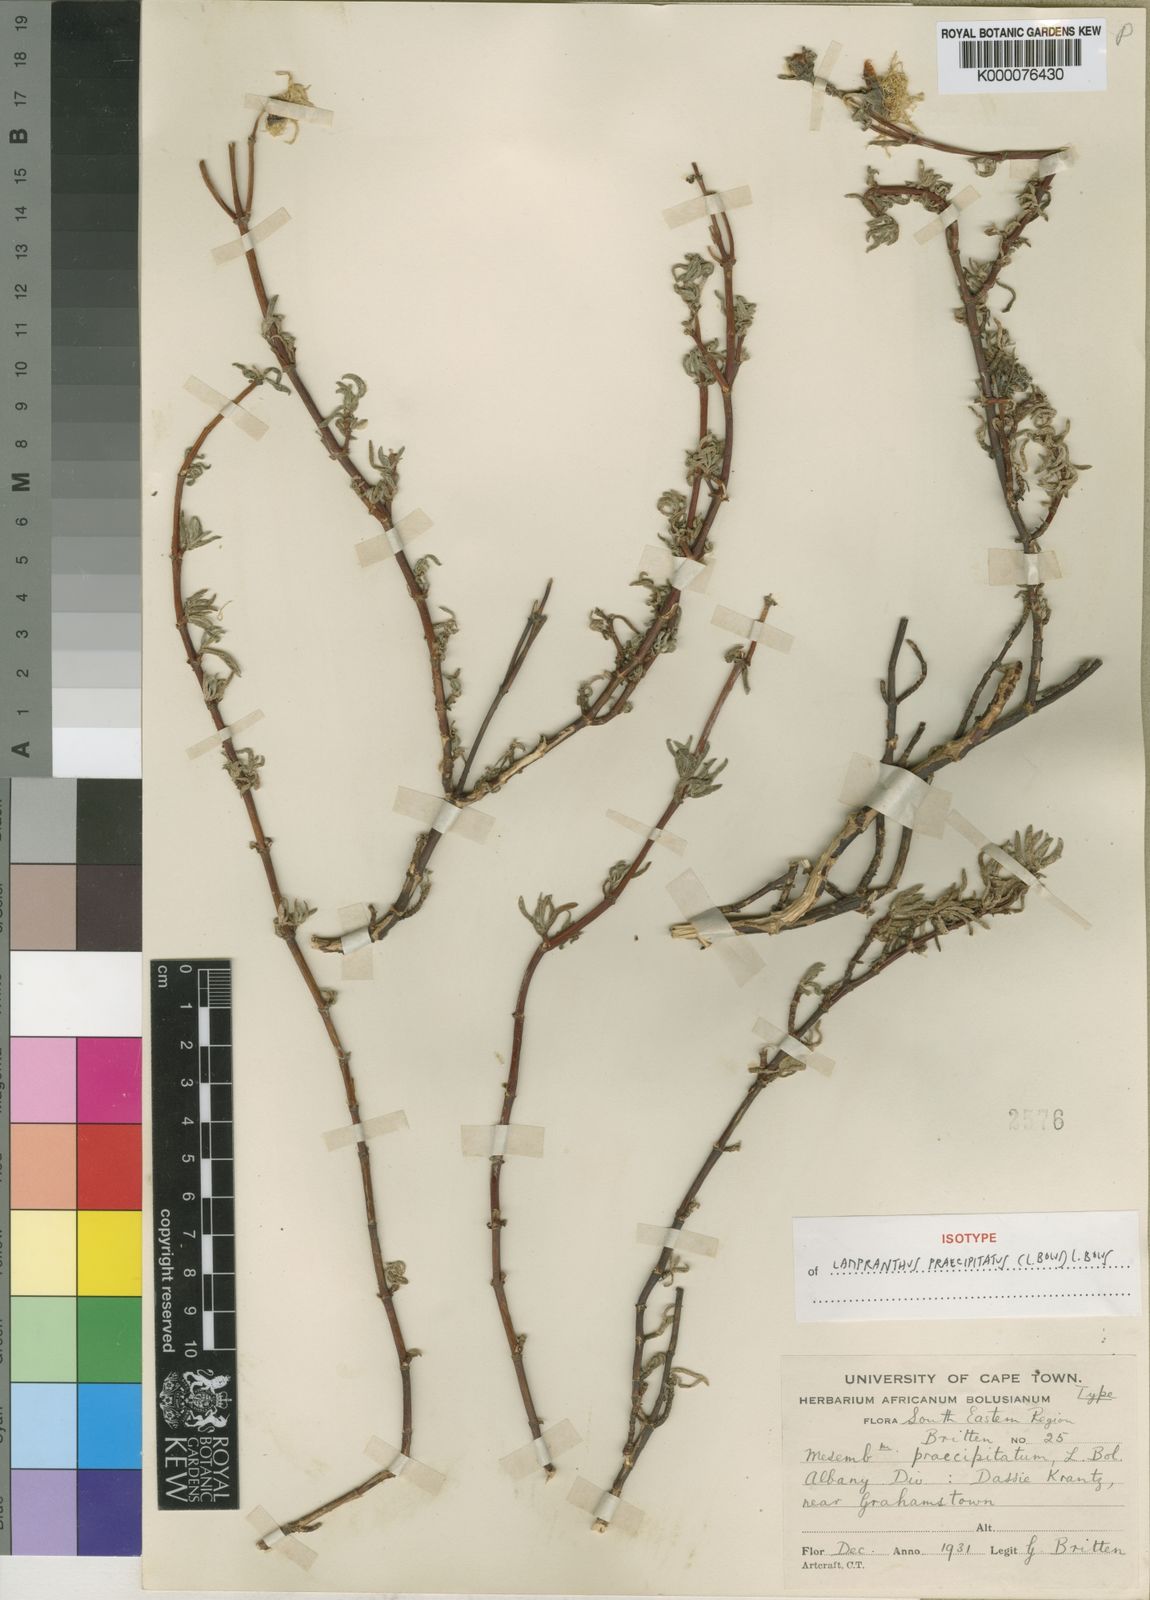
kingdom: Plantae
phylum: Tracheophyta
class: Magnoliopsida
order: Caryophyllales
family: Aizoaceae
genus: Lampranthus
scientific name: Lampranthus praecipitatus
